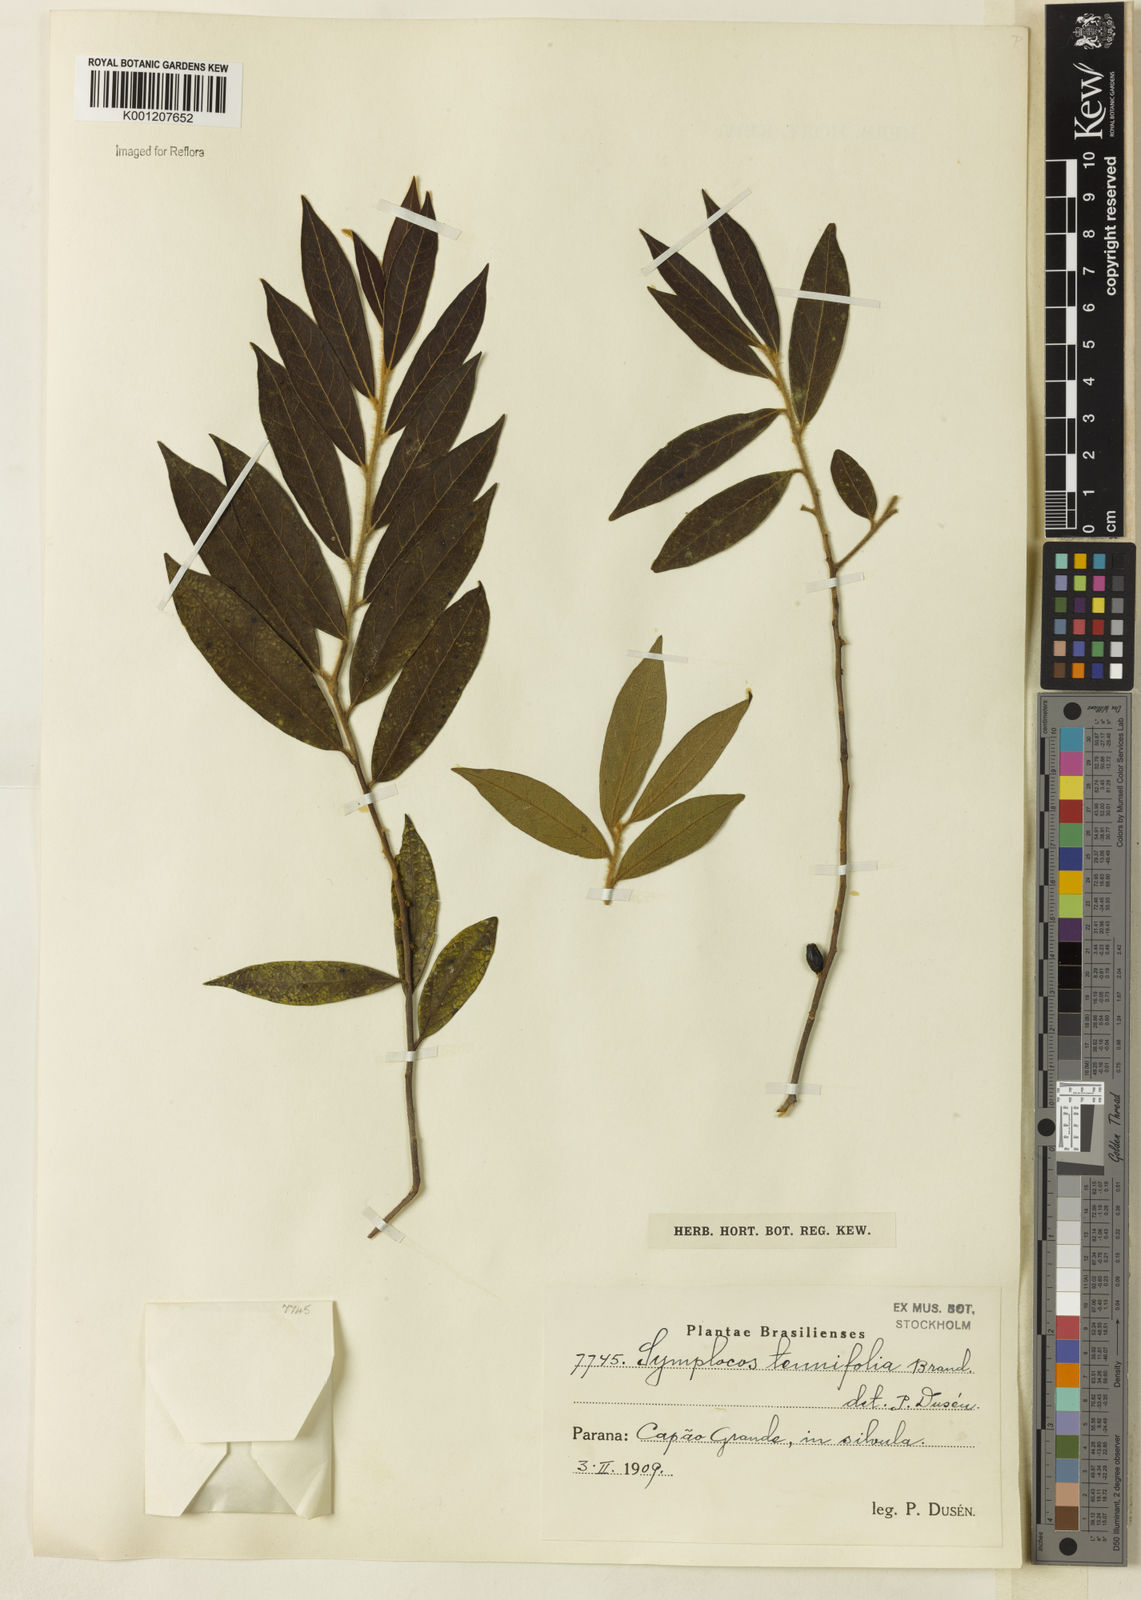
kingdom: Plantae
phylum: Tracheophyta
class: Magnoliopsida
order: Ericales
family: Symplocaceae
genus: Symplocos
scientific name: Symplocos tenuifolia
